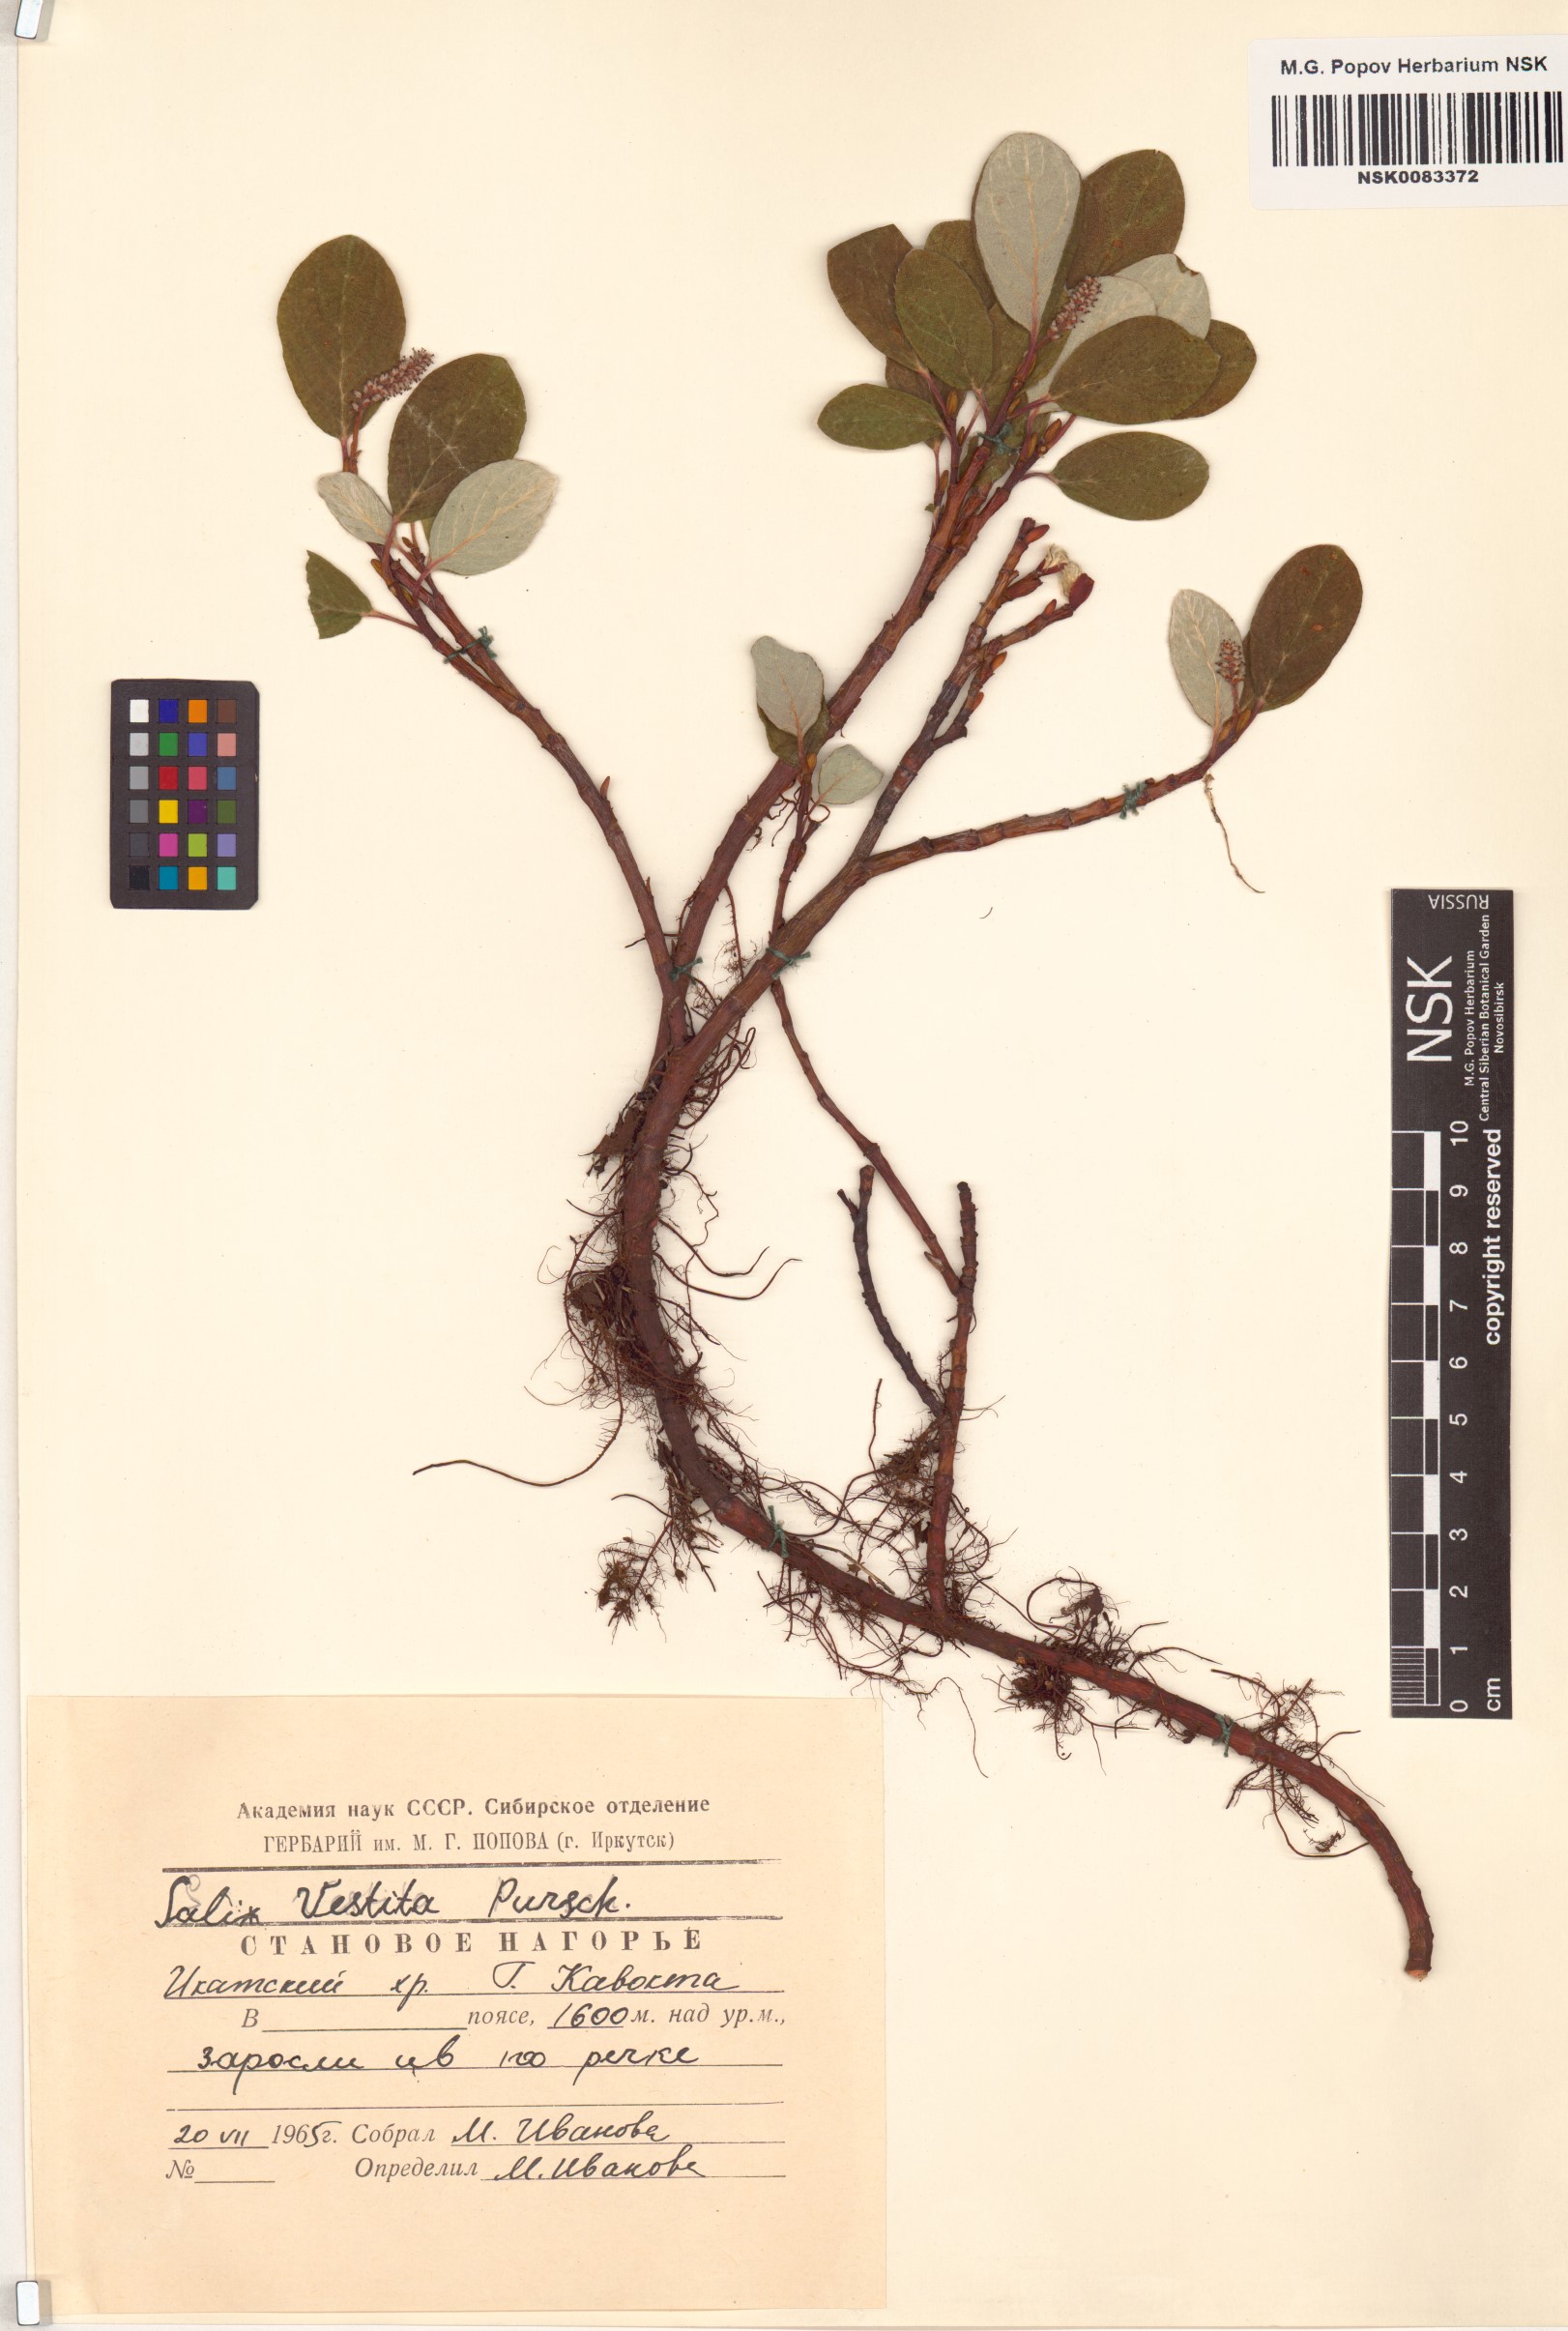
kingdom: Plantae
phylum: Tracheophyta
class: Magnoliopsida
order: Malpighiales
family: Salicaceae
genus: Salix
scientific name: Salix vestita
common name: Hairy willow
